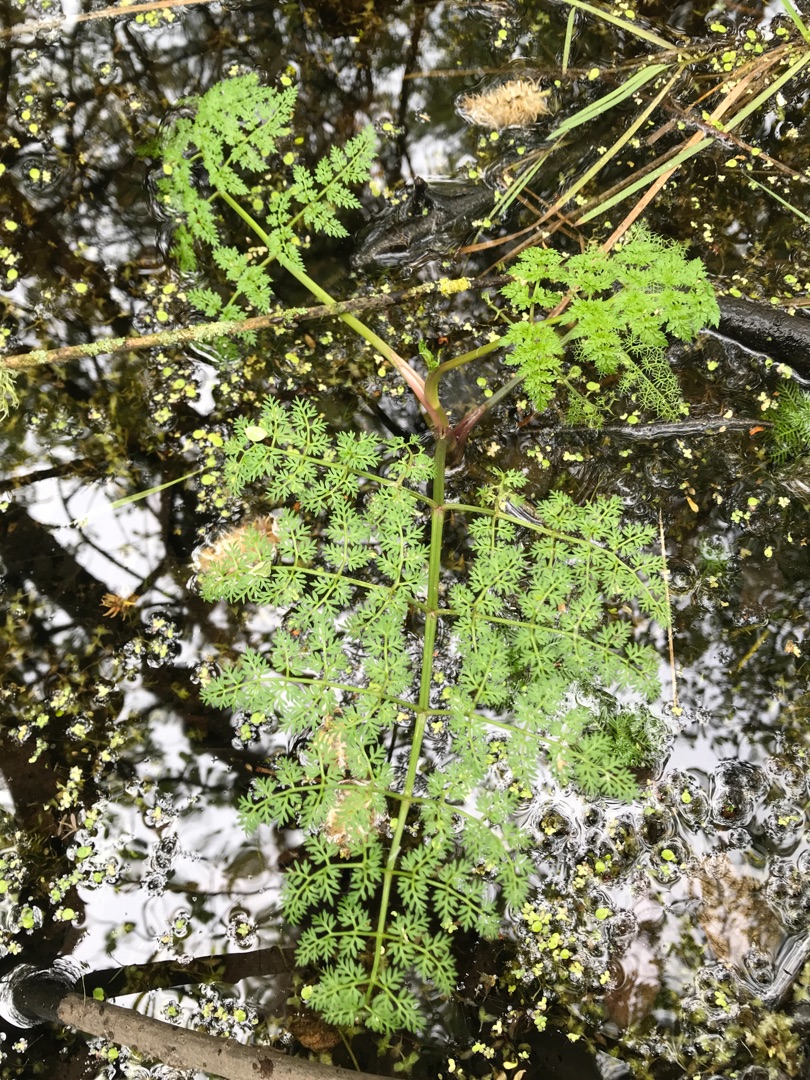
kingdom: Plantae
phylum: Tracheophyta
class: Magnoliopsida
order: Apiales
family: Apiaceae
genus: Oenanthe
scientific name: Oenanthe aquatica
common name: Billebo-klaseskærm
